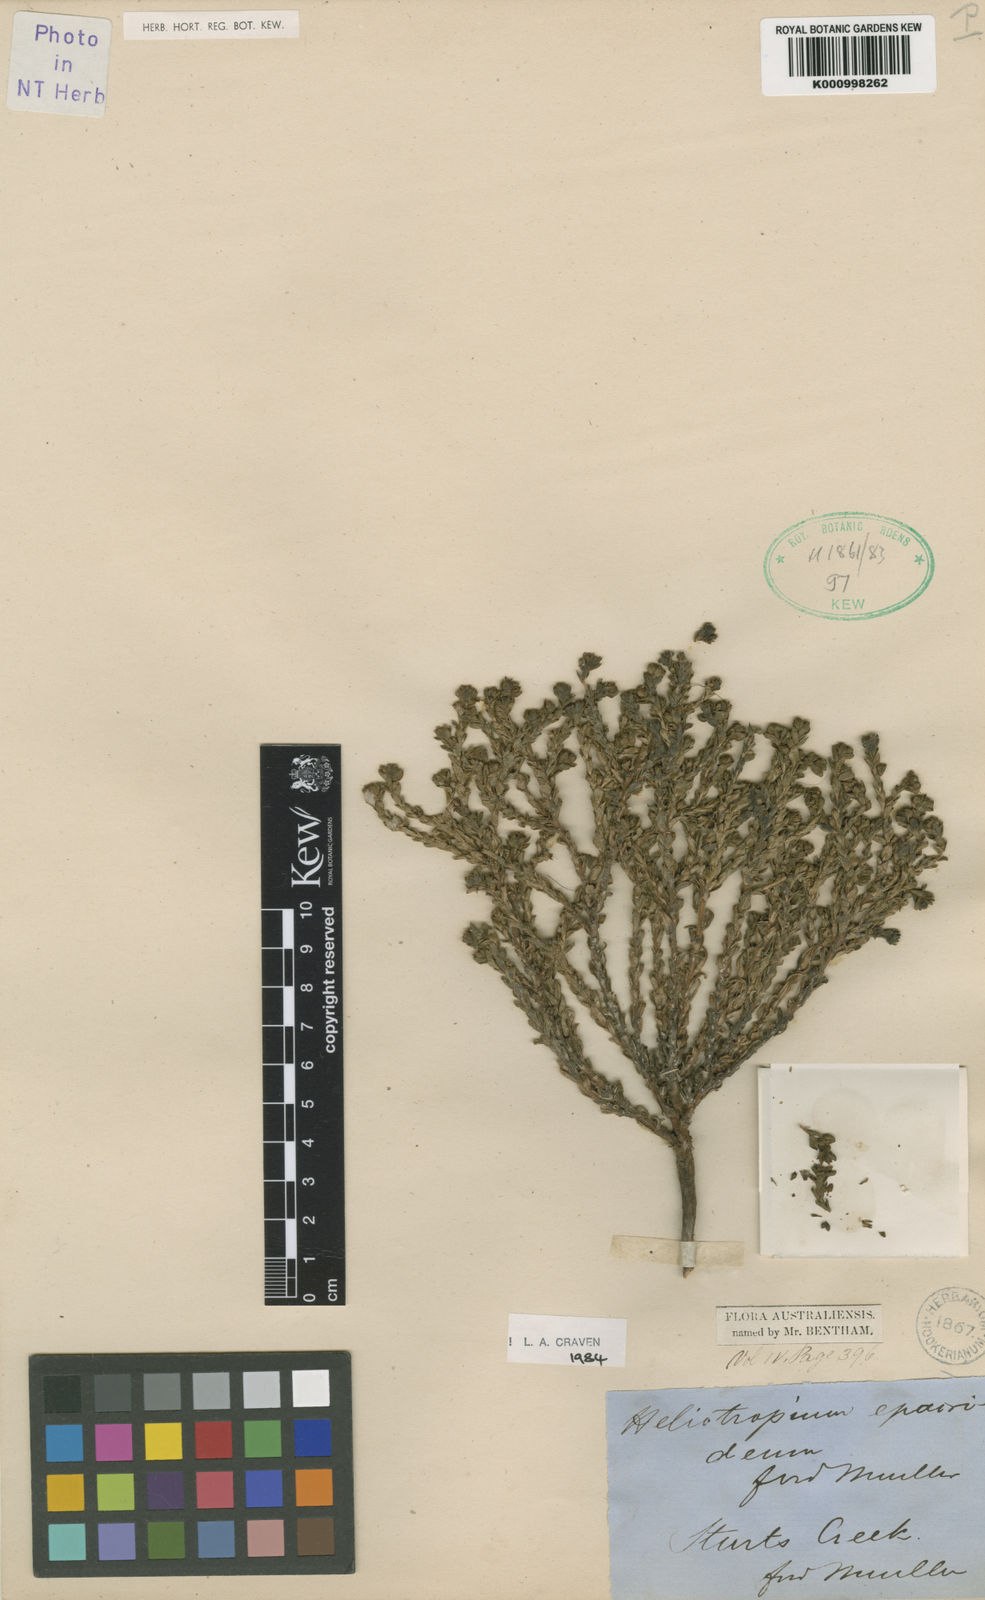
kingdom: Plantae
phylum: Tracheophyta
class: Magnoliopsida
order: Boraginales
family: Heliotropiaceae
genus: Euploca
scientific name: Euploca epacridea
